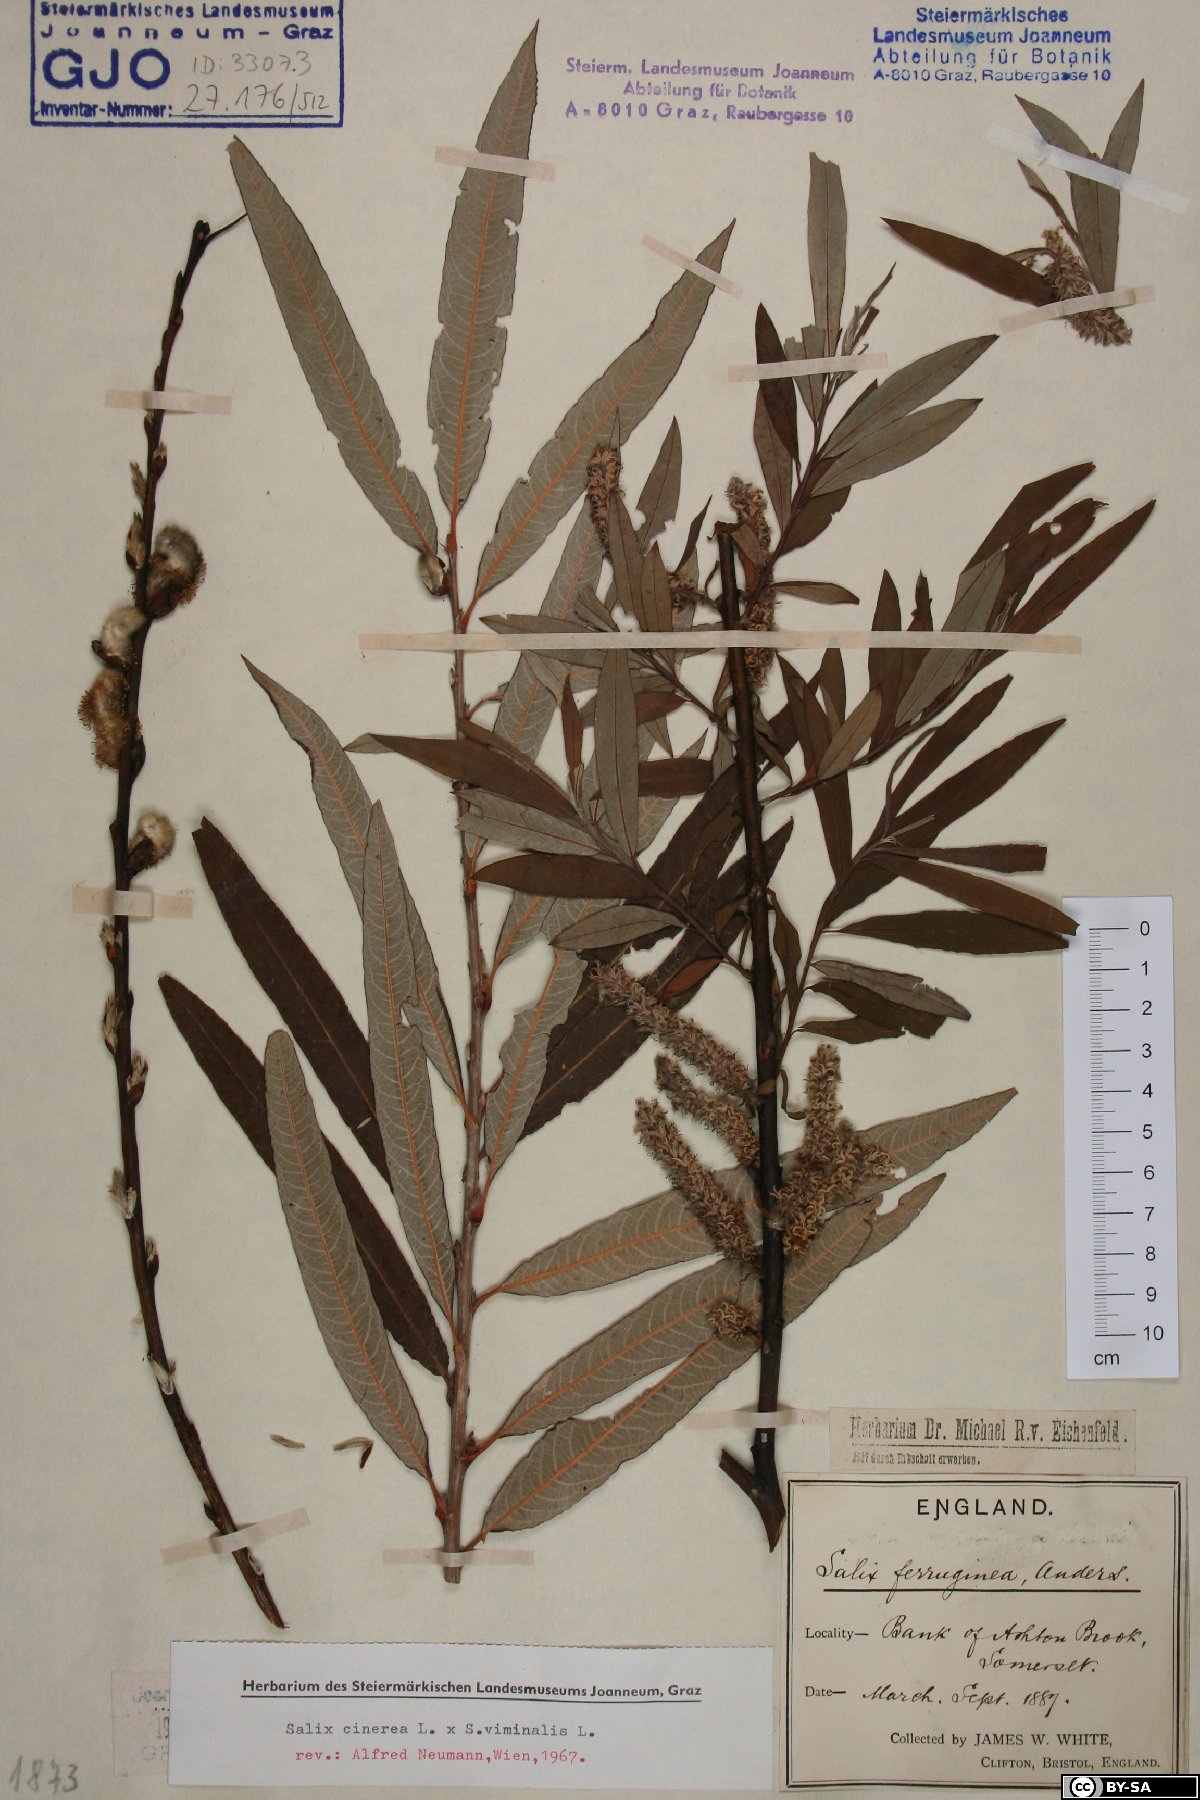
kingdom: Plantae
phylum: Tracheophyta
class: Magnoliopsida
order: Malpighiales
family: Salicaceae
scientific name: Salicaceae
